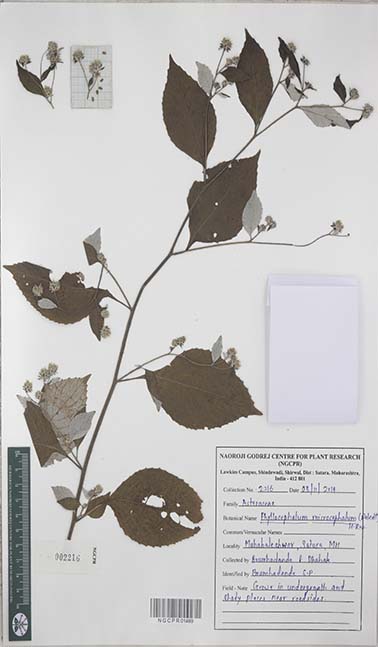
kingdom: Plantae
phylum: Tracheophyta
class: Magnoliopsida
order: Asterales
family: Asteraceae
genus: Phyllocephalum
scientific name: Phyllocephalum microcephalum
